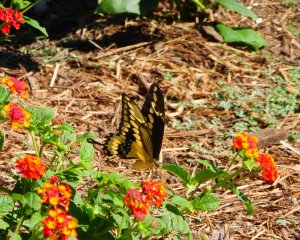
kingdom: Animalia
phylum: Arthropoda
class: Insecta
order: Lepidoptera
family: Papilionidae
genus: Papilio
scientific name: Papilio
